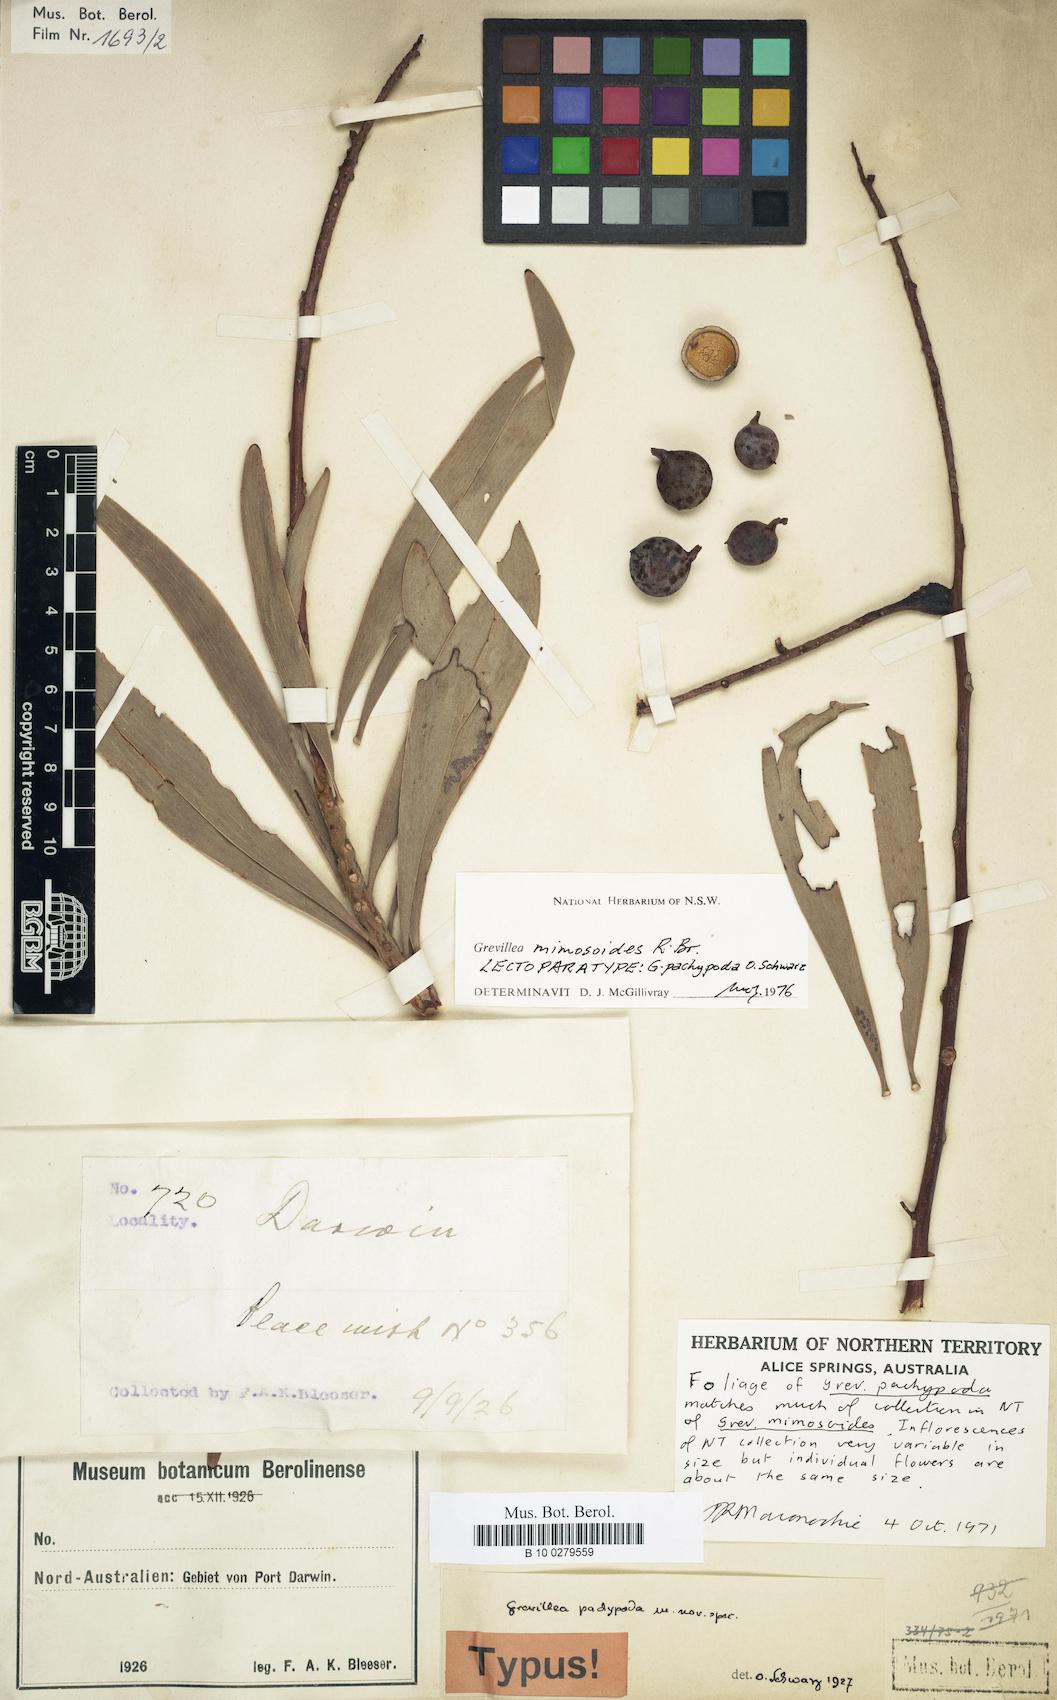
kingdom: Plantae
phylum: Tracheophyta
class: Magnoliopsida
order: Proteales
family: Proteaceae
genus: Grevillea
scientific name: Grevillea mimosoides
